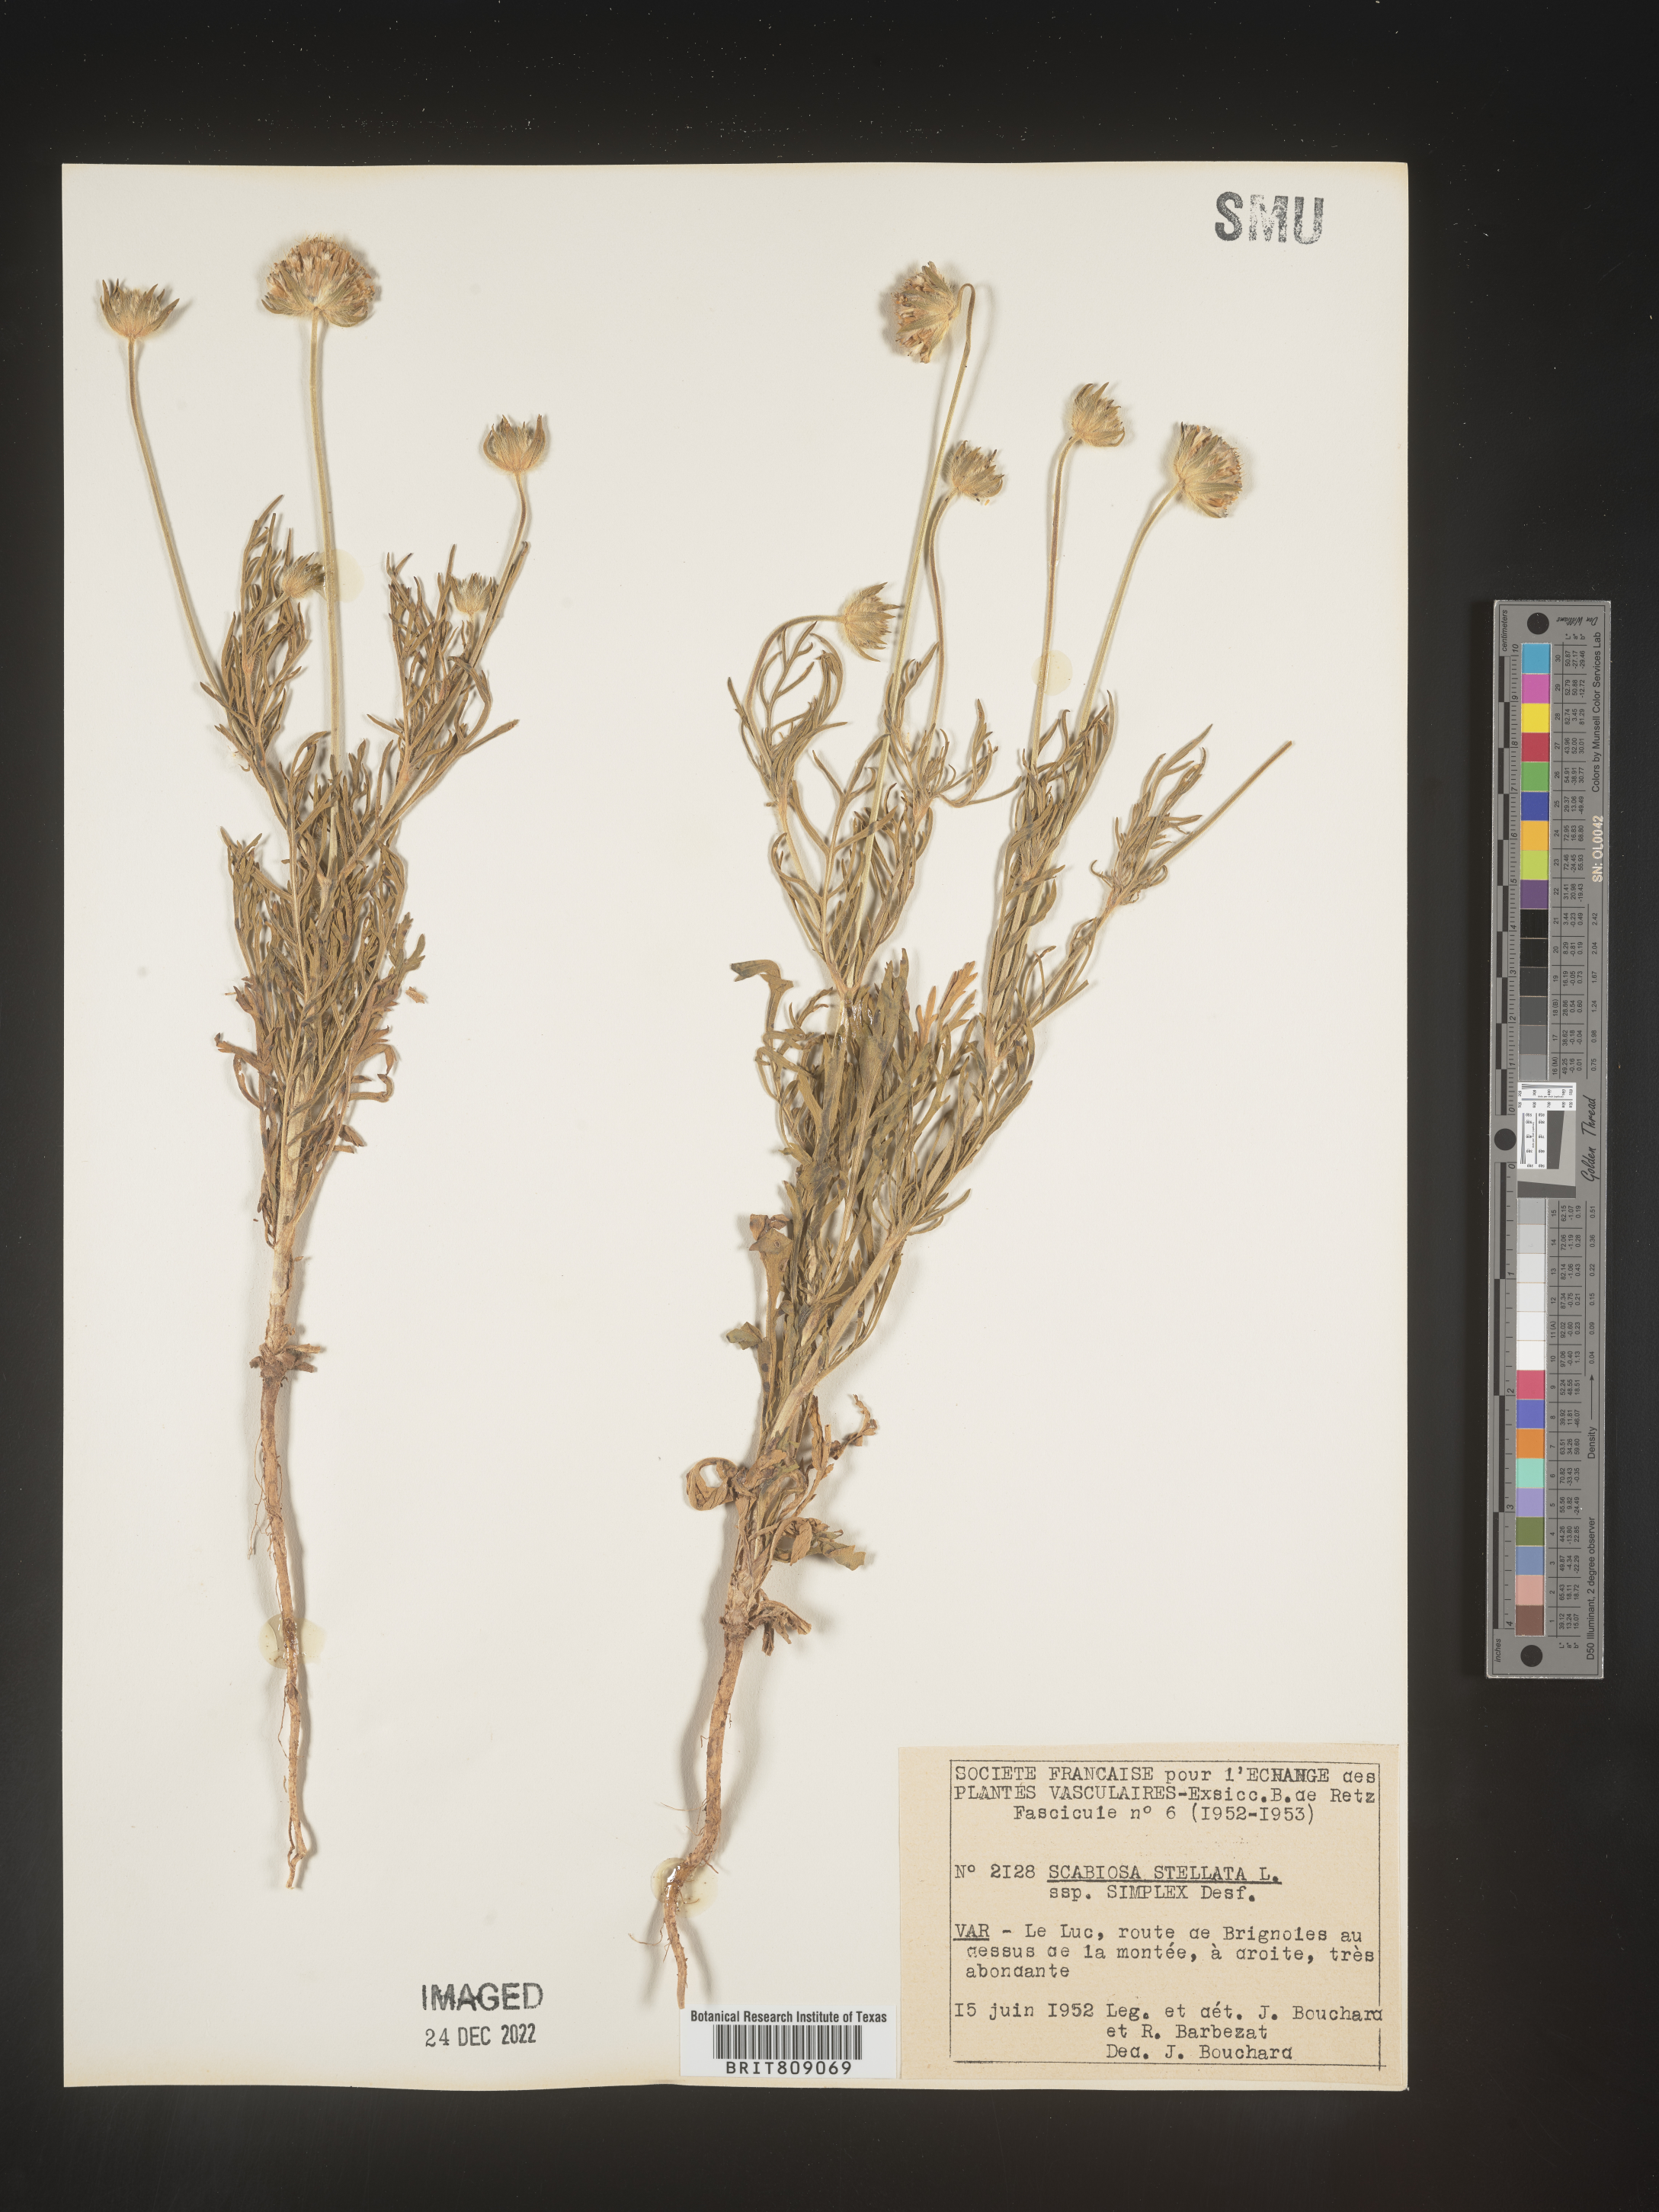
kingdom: Plantae
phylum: Tracheophyta
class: Magnoliopsida
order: Dipsacales
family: Caprifoliaceae
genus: Scabiosa
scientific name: Scabiosa
